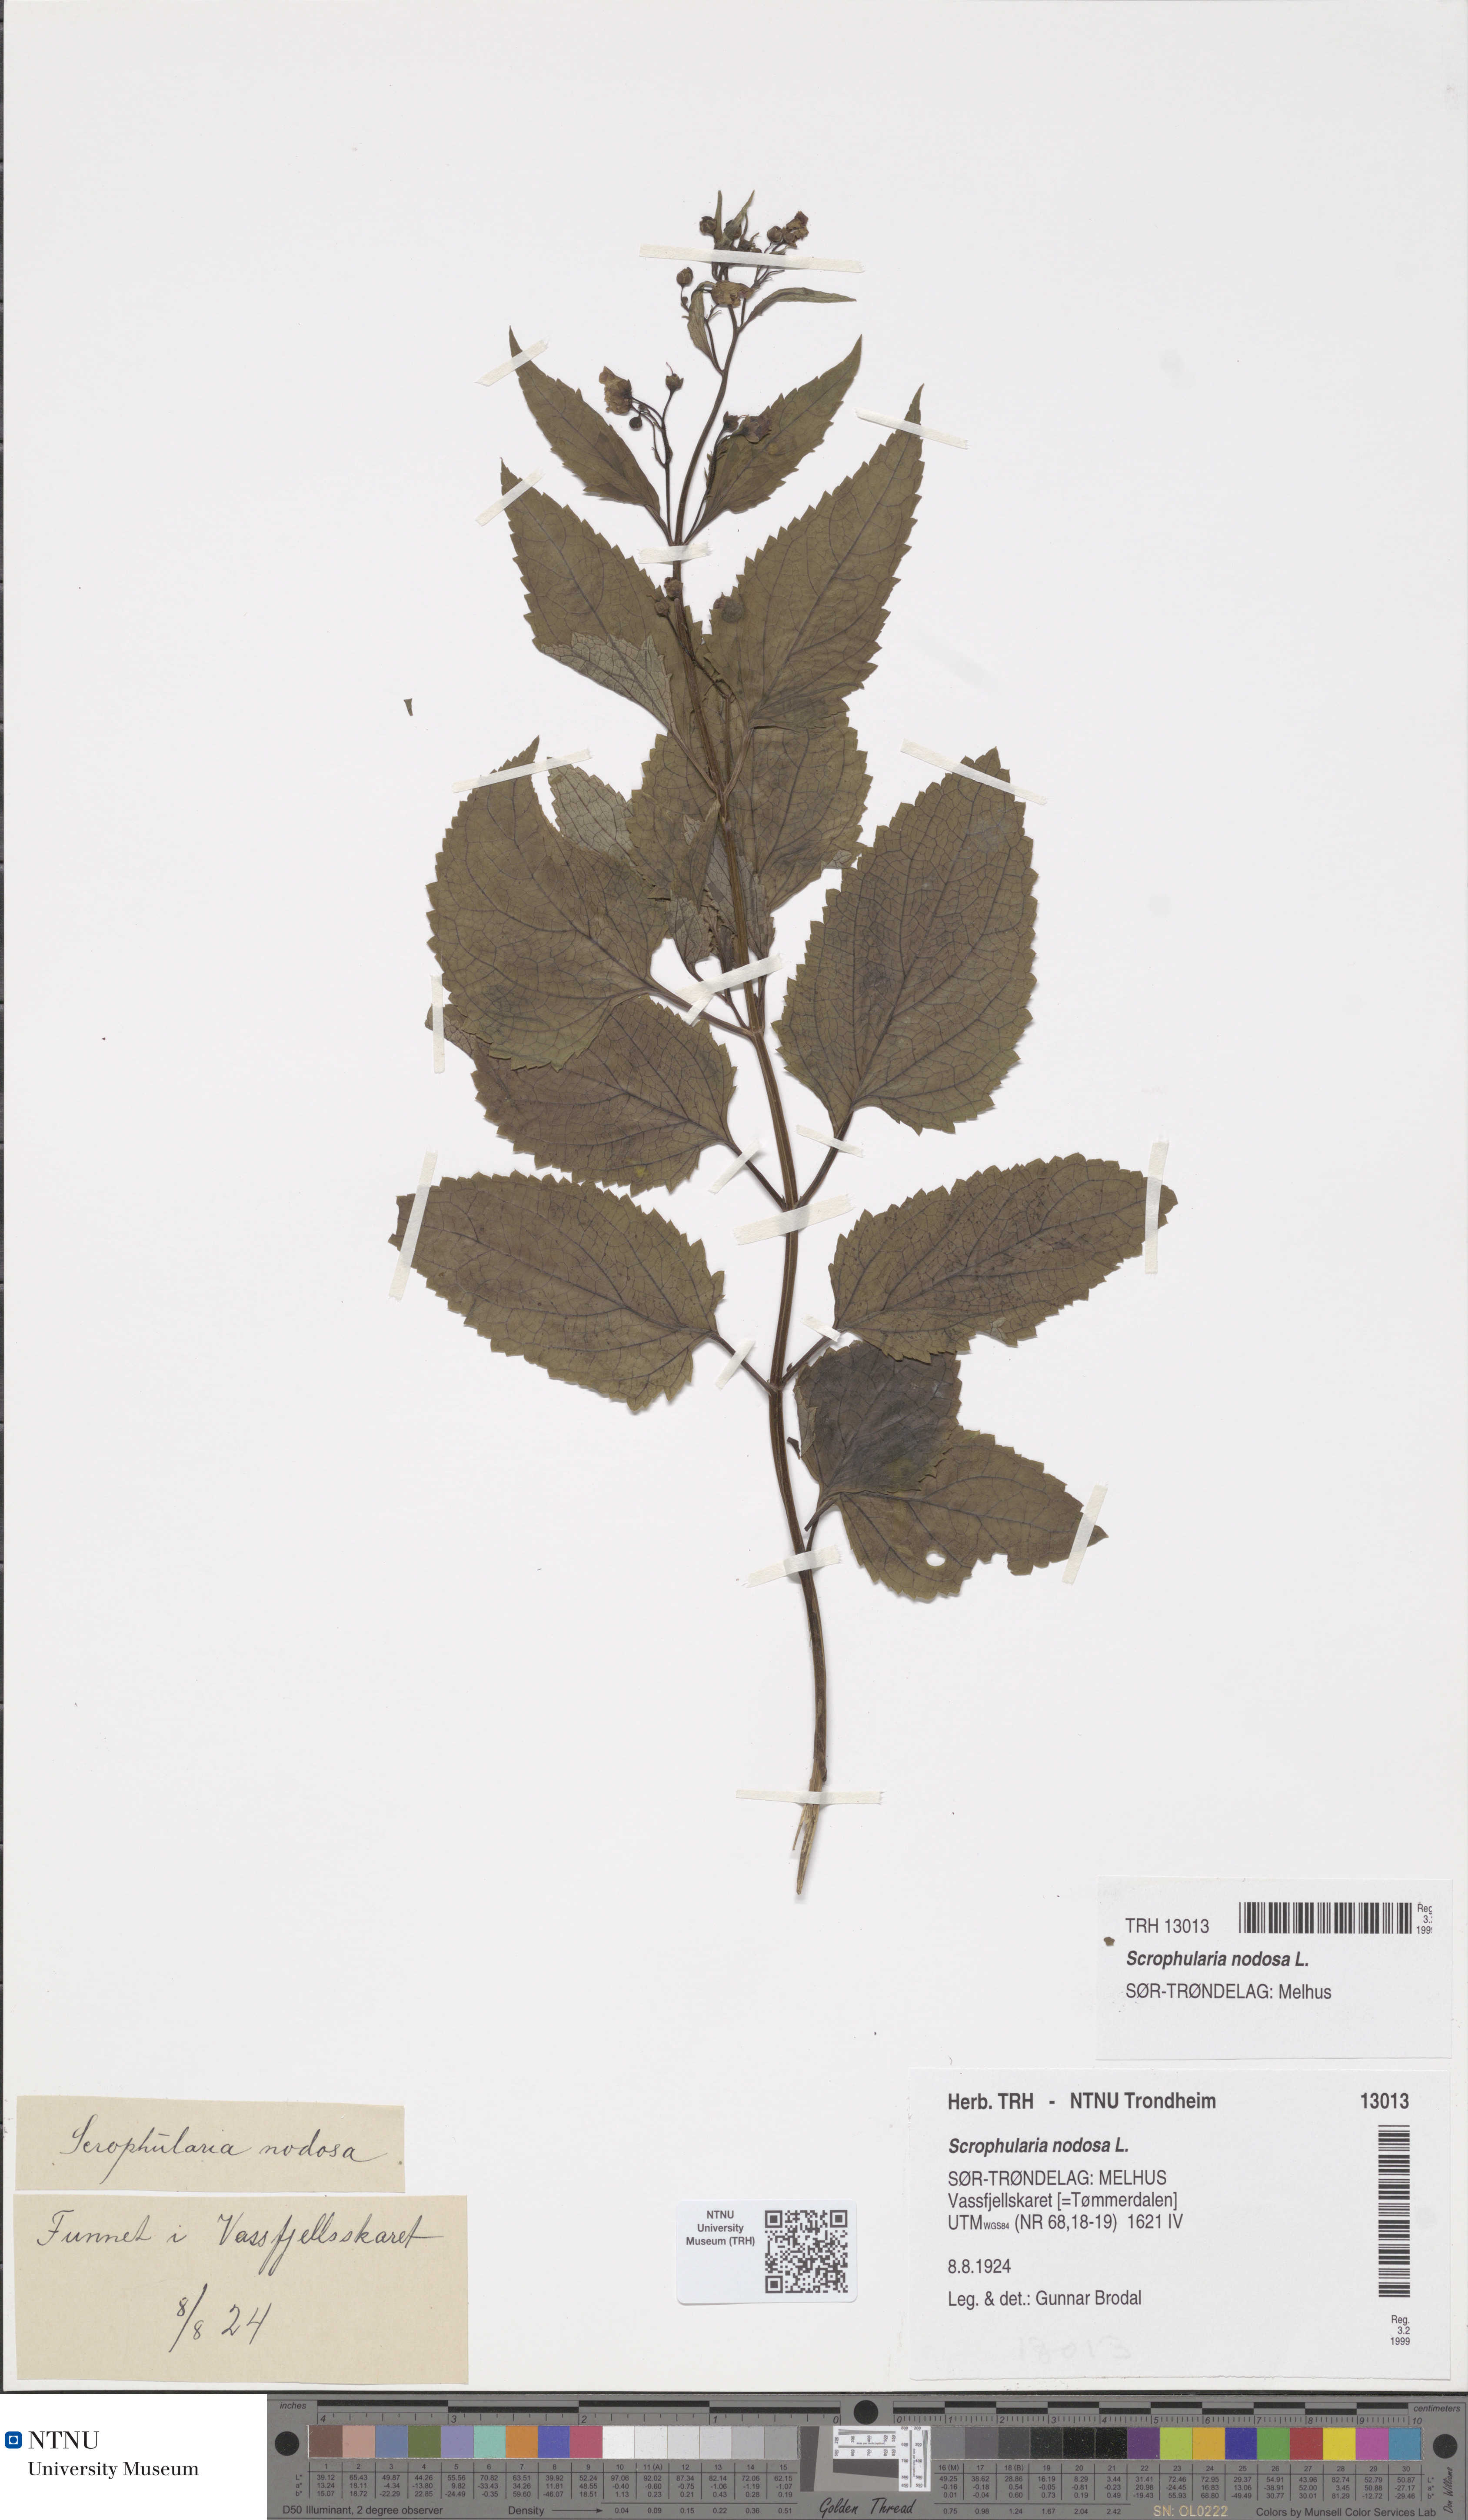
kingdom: Plantae
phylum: Tracheophyta
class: Magnoliopsida
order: Lamiales
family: Scrophulariaceae
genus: Scrophularia
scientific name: Scrophularia nodosa
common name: Common figwort
